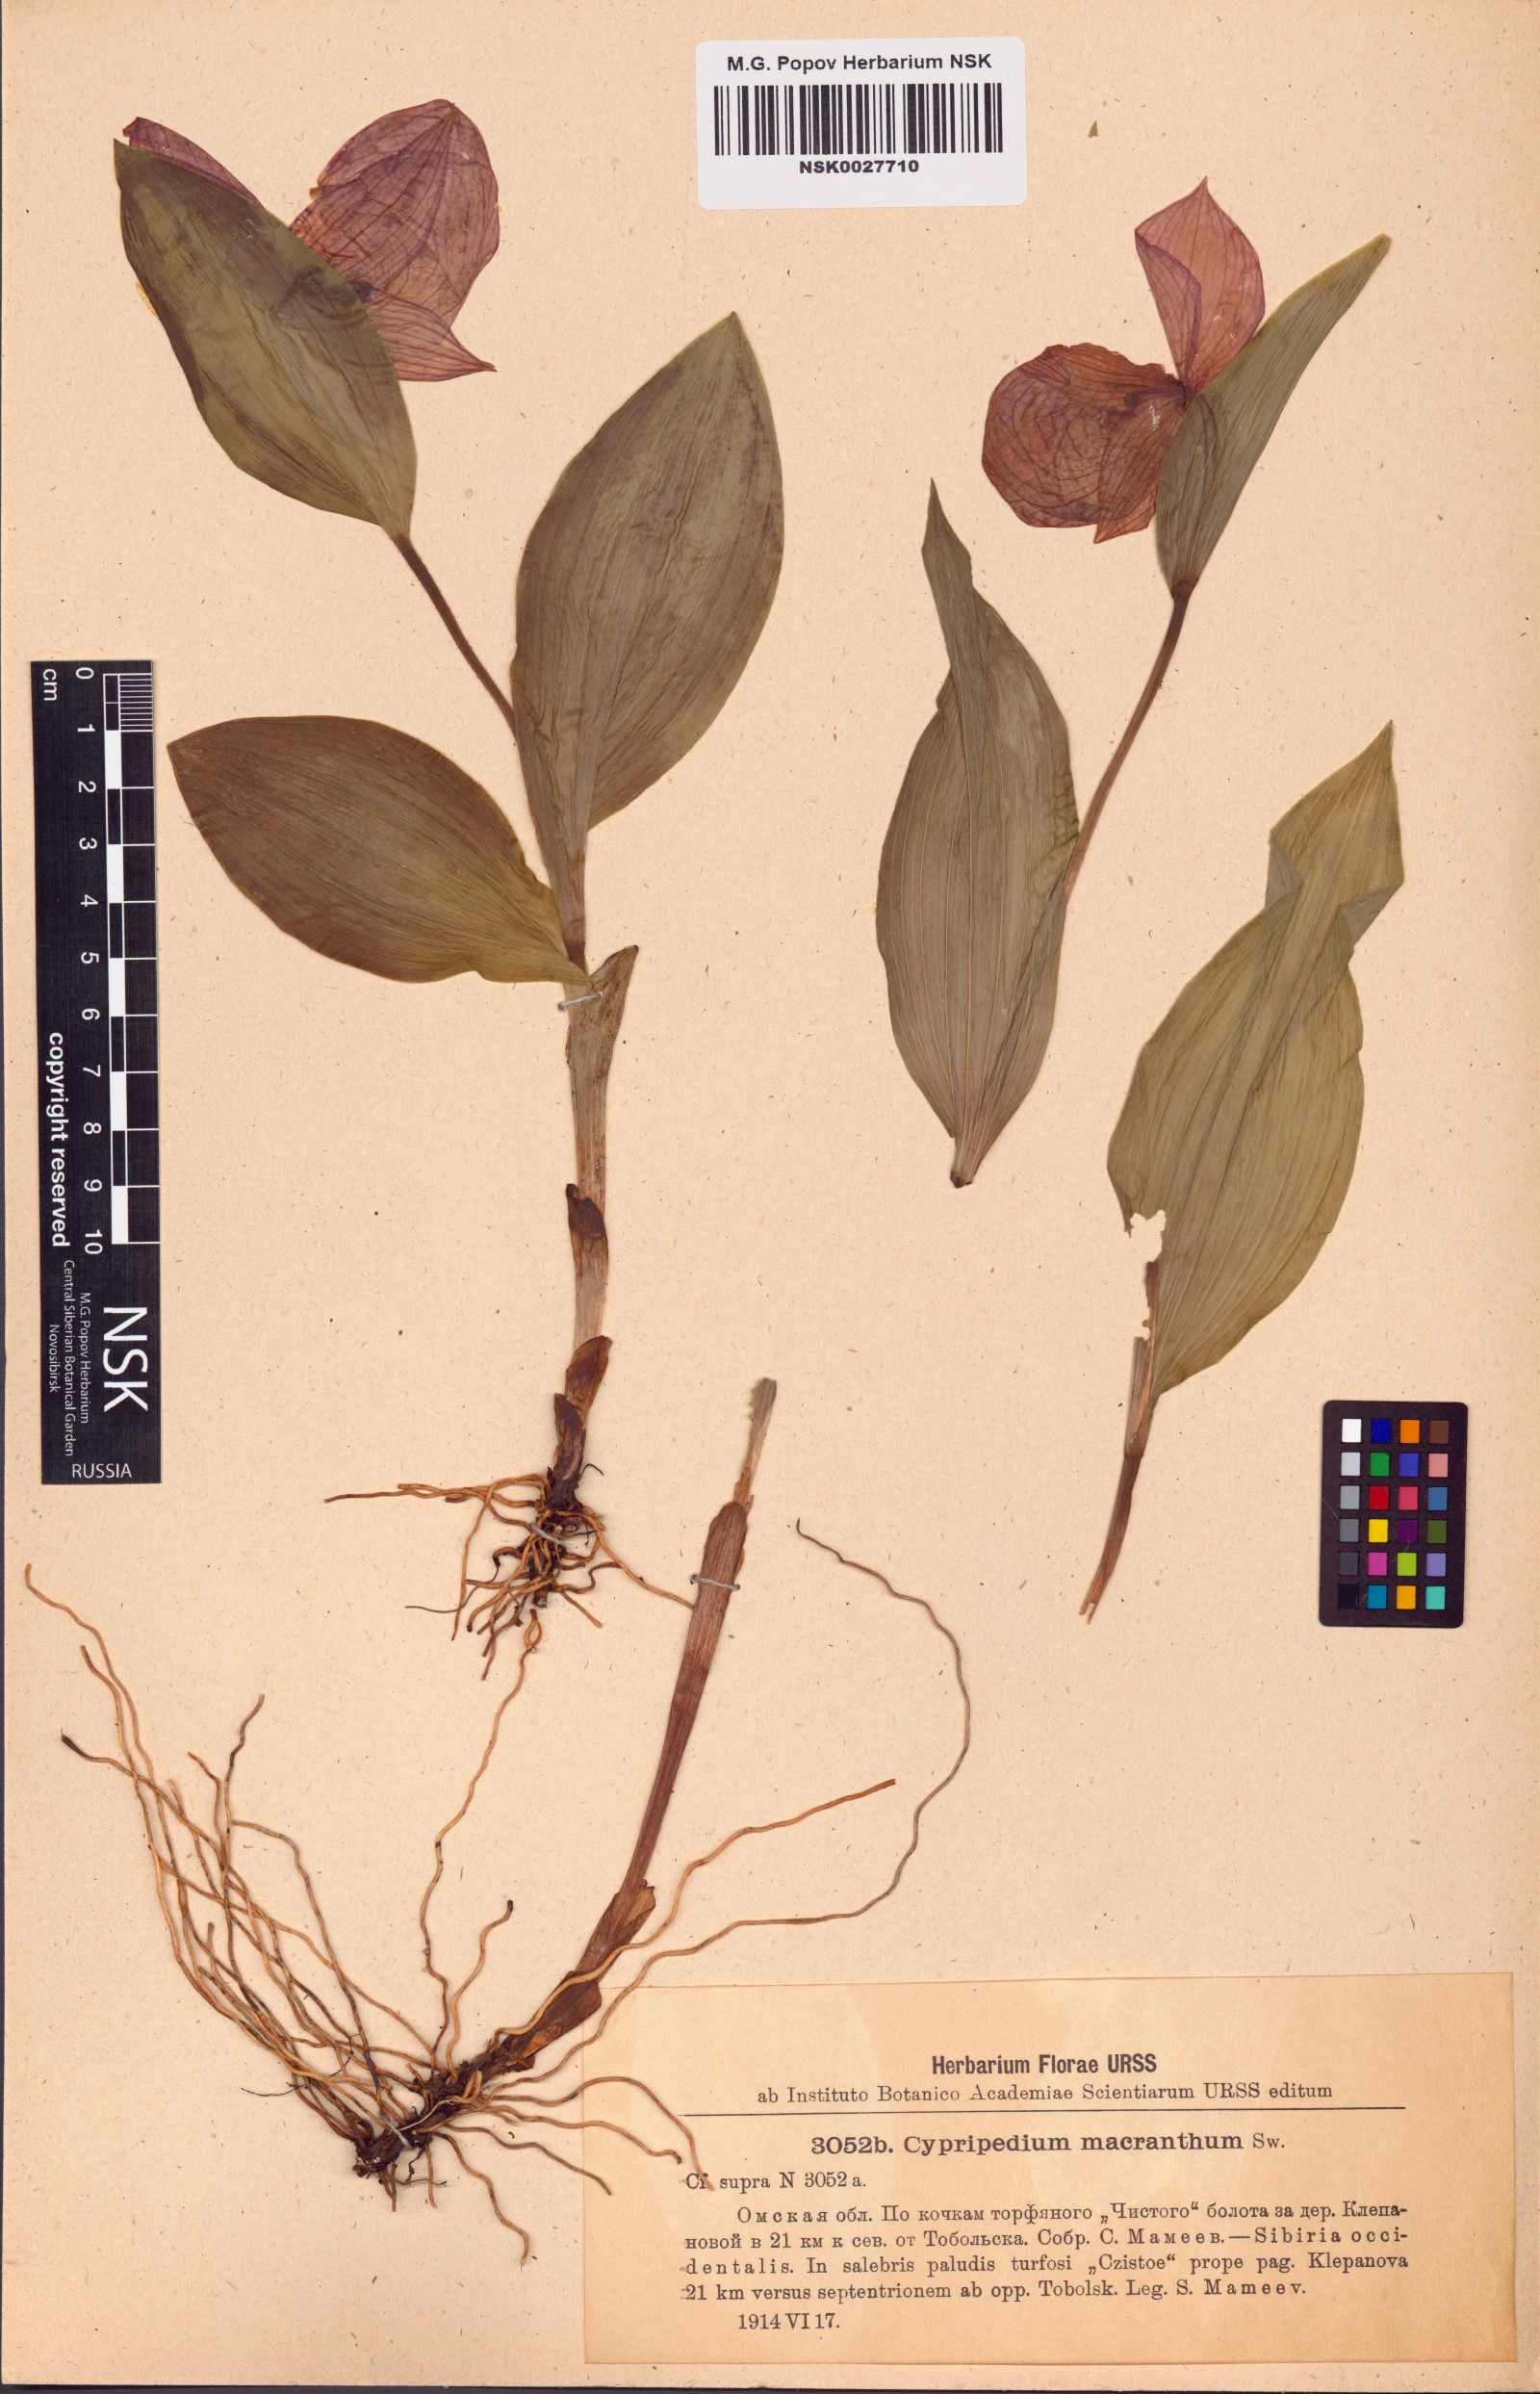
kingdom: Plantae
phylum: Tracheophyta
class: Liliopsida
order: Asparagales
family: Orchidaceae
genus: Cypripedium
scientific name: Cypripedium macranthos
